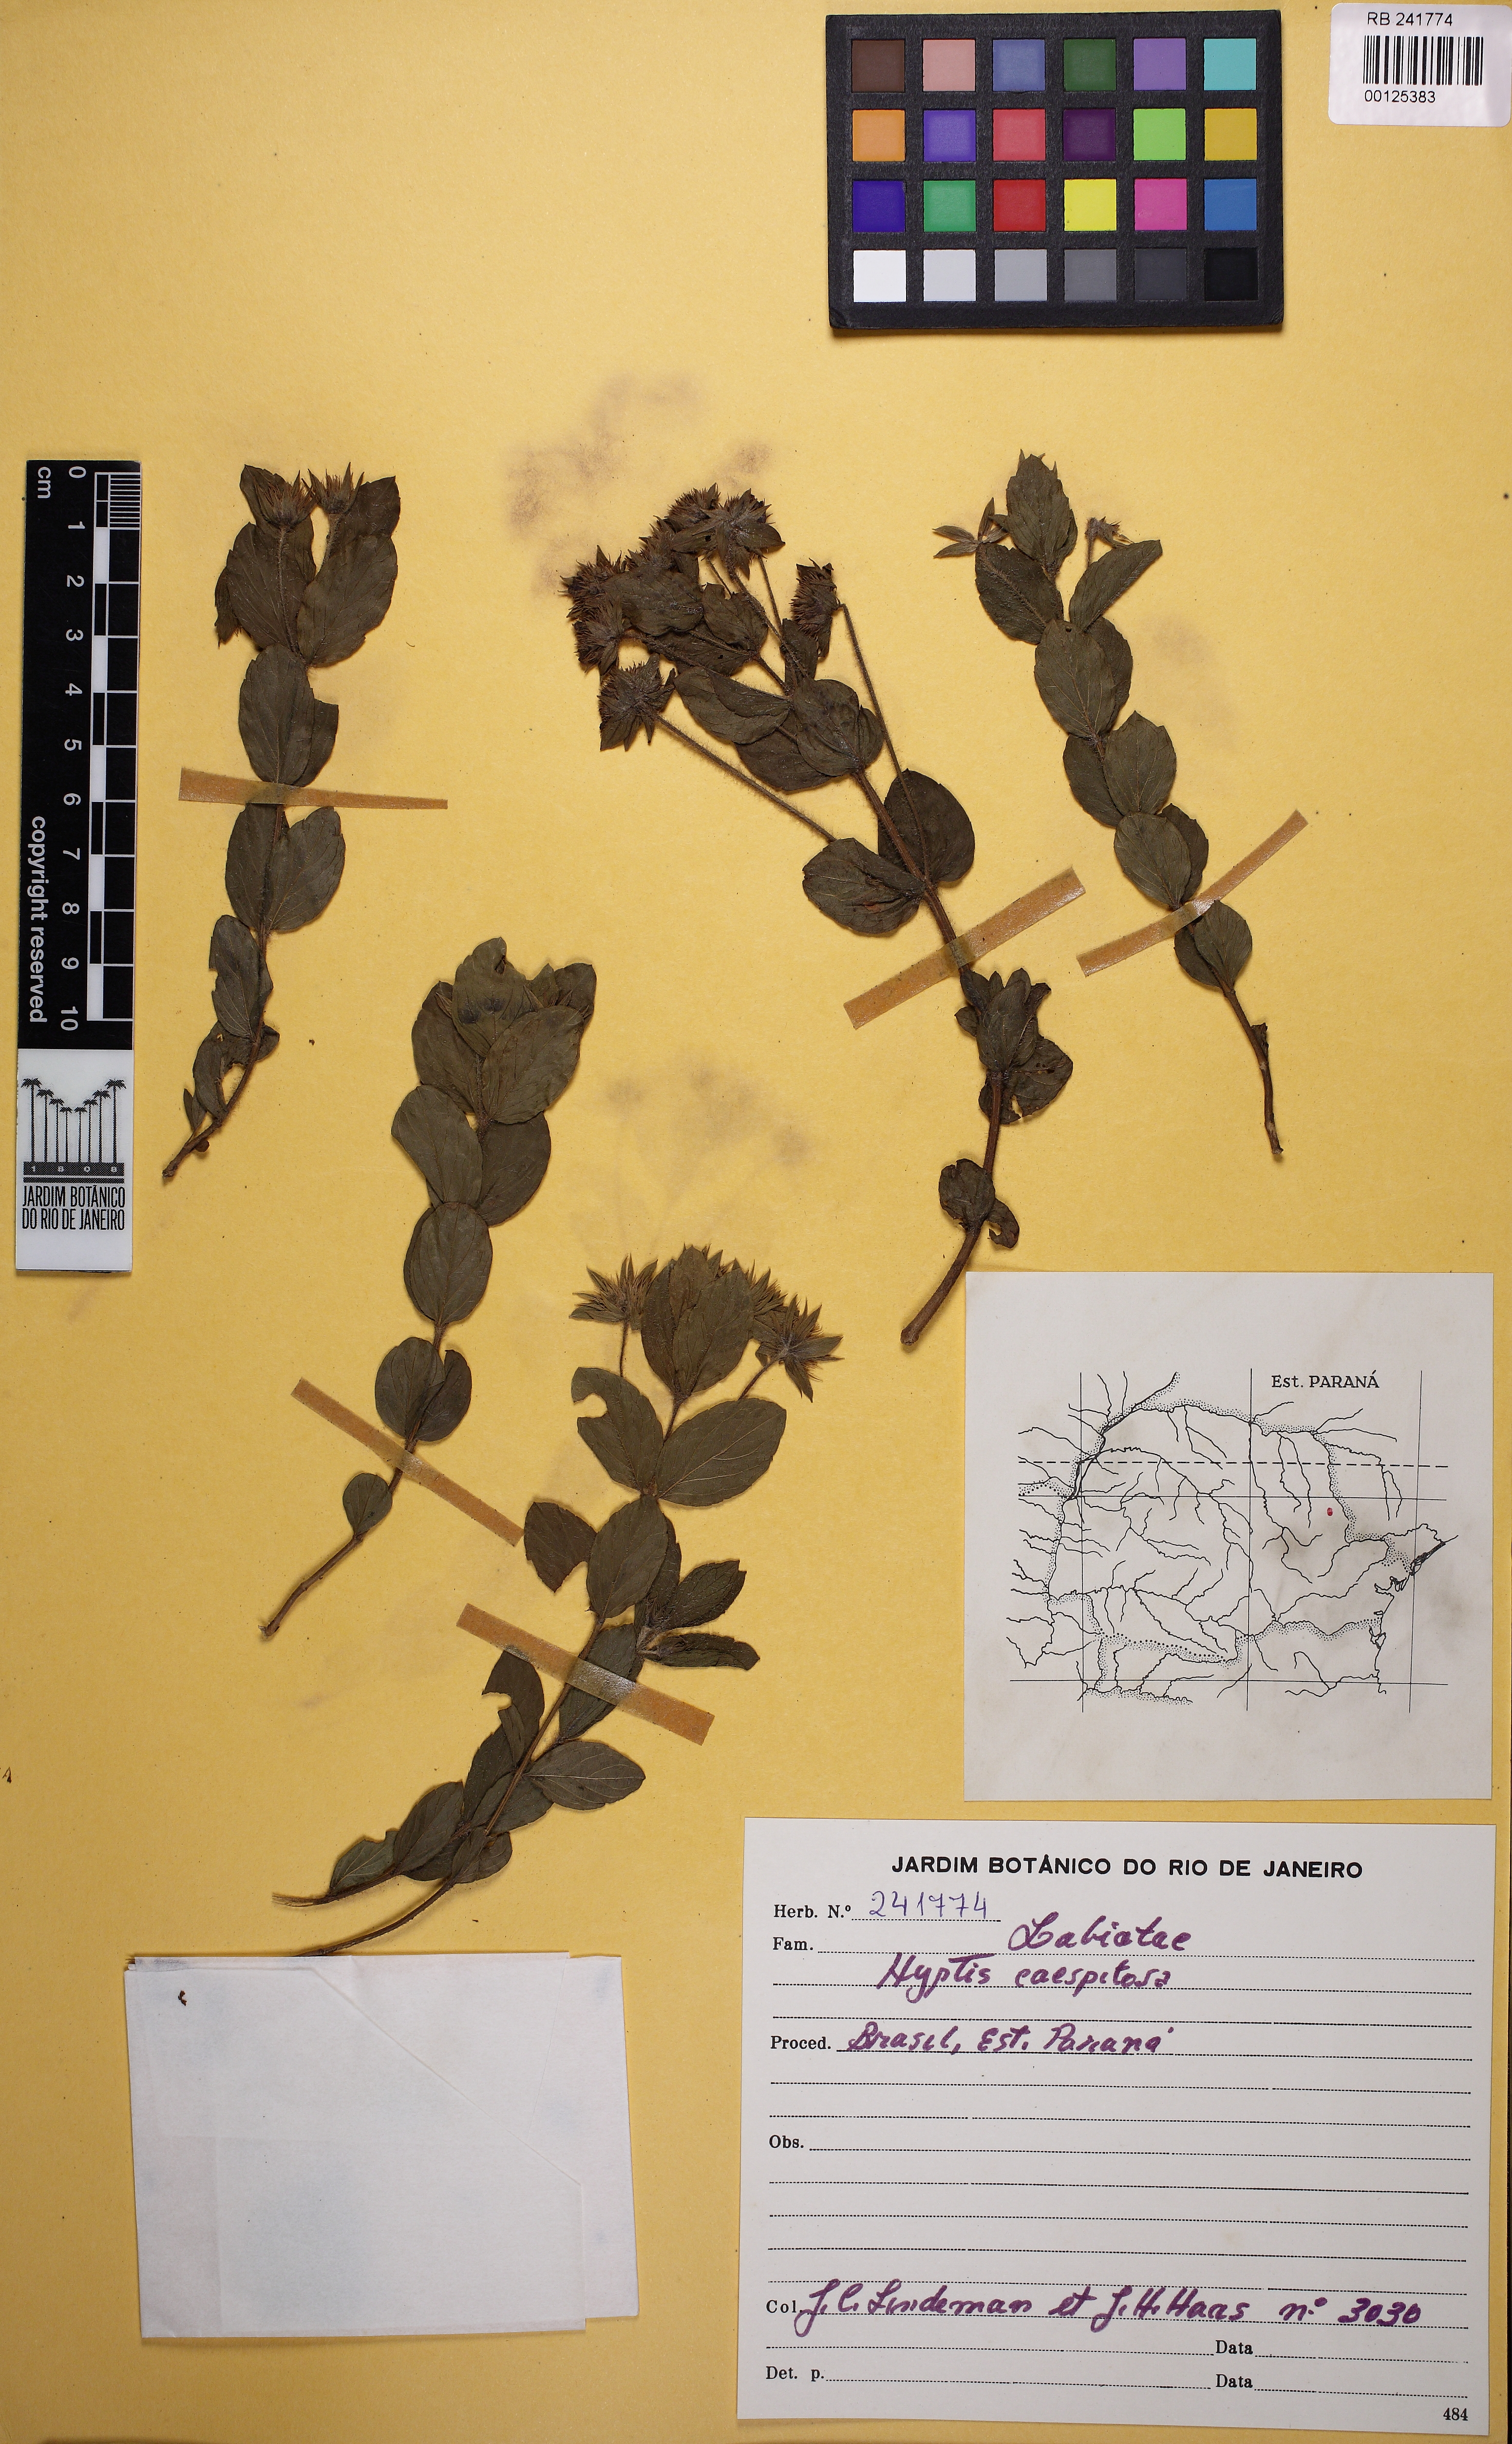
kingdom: Plantae
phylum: Tracheophyta
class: Magnoliopsida
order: Lamiales
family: Lamiaceae
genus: Hyptis
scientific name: Hyptis caespitosa
